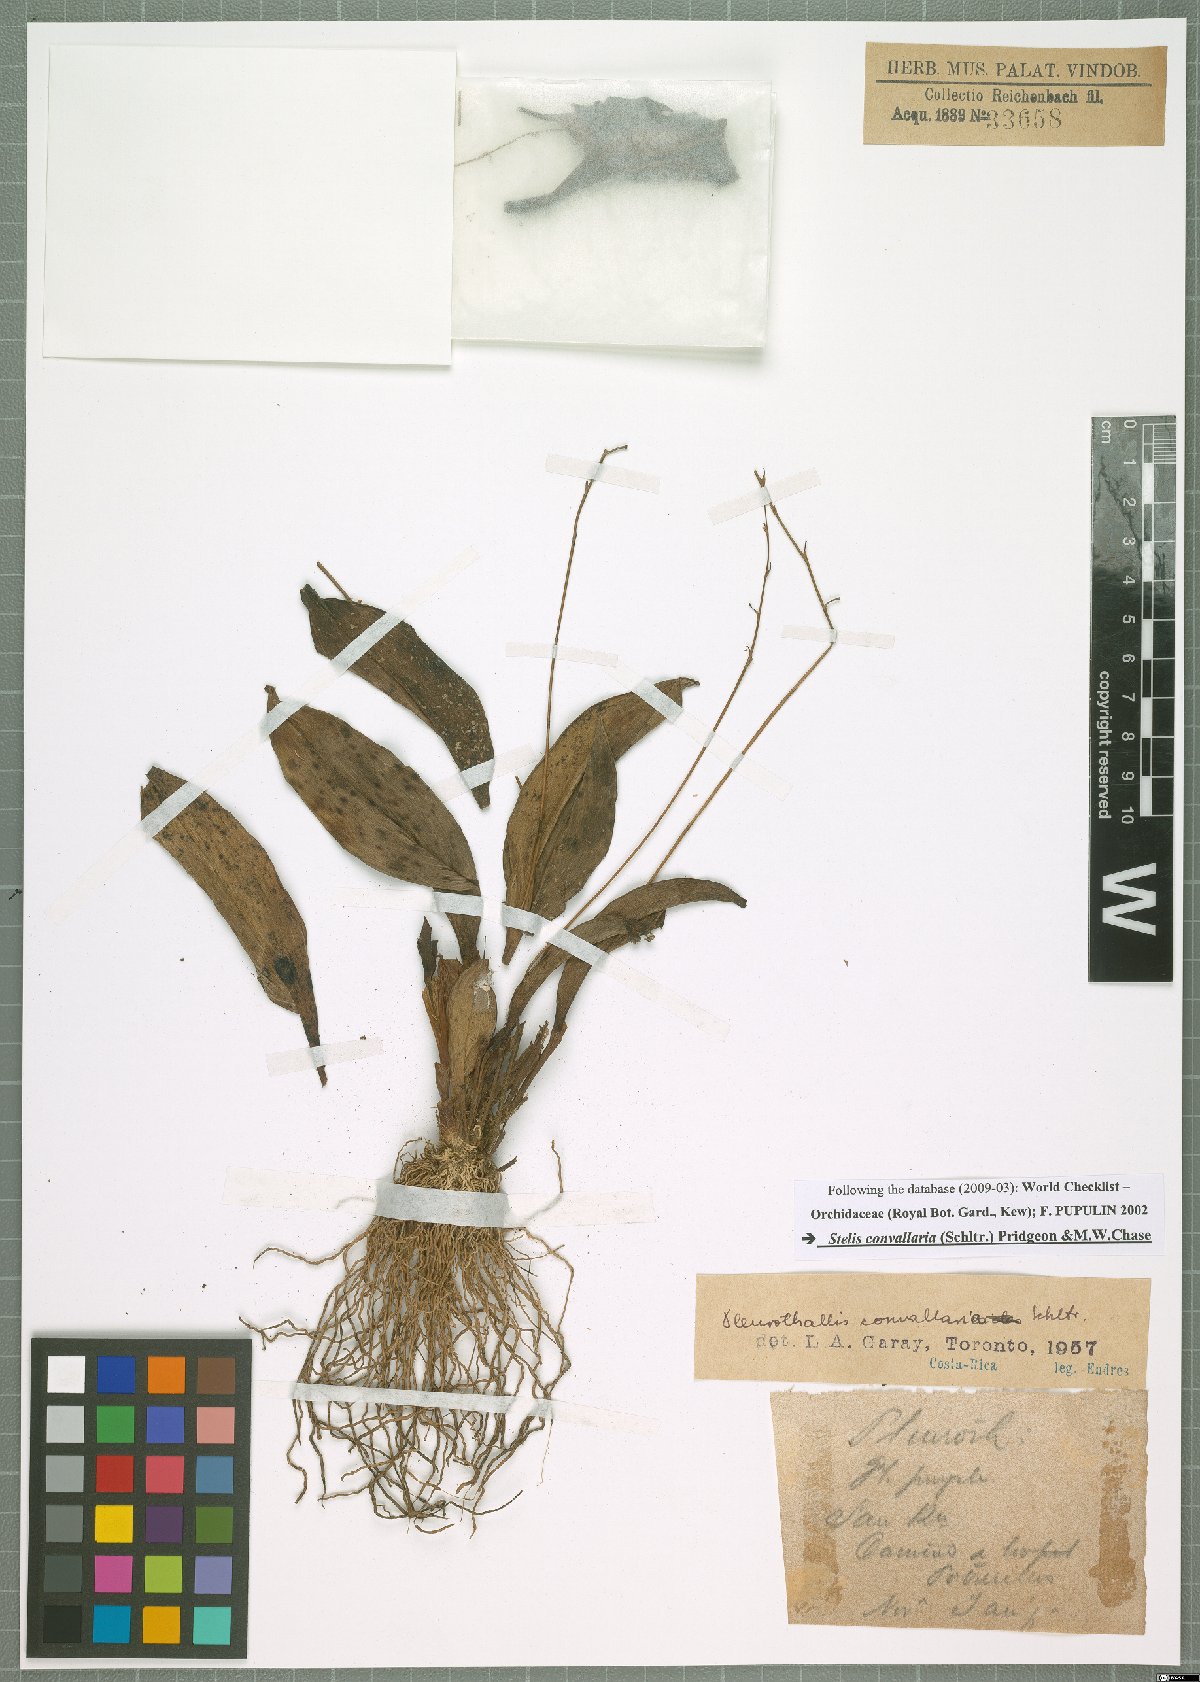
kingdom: Plantae
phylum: Tracheophyta
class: Liliopsida
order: Asparagales
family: Orchidaceae
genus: Stelis
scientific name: Stelis convallaria
